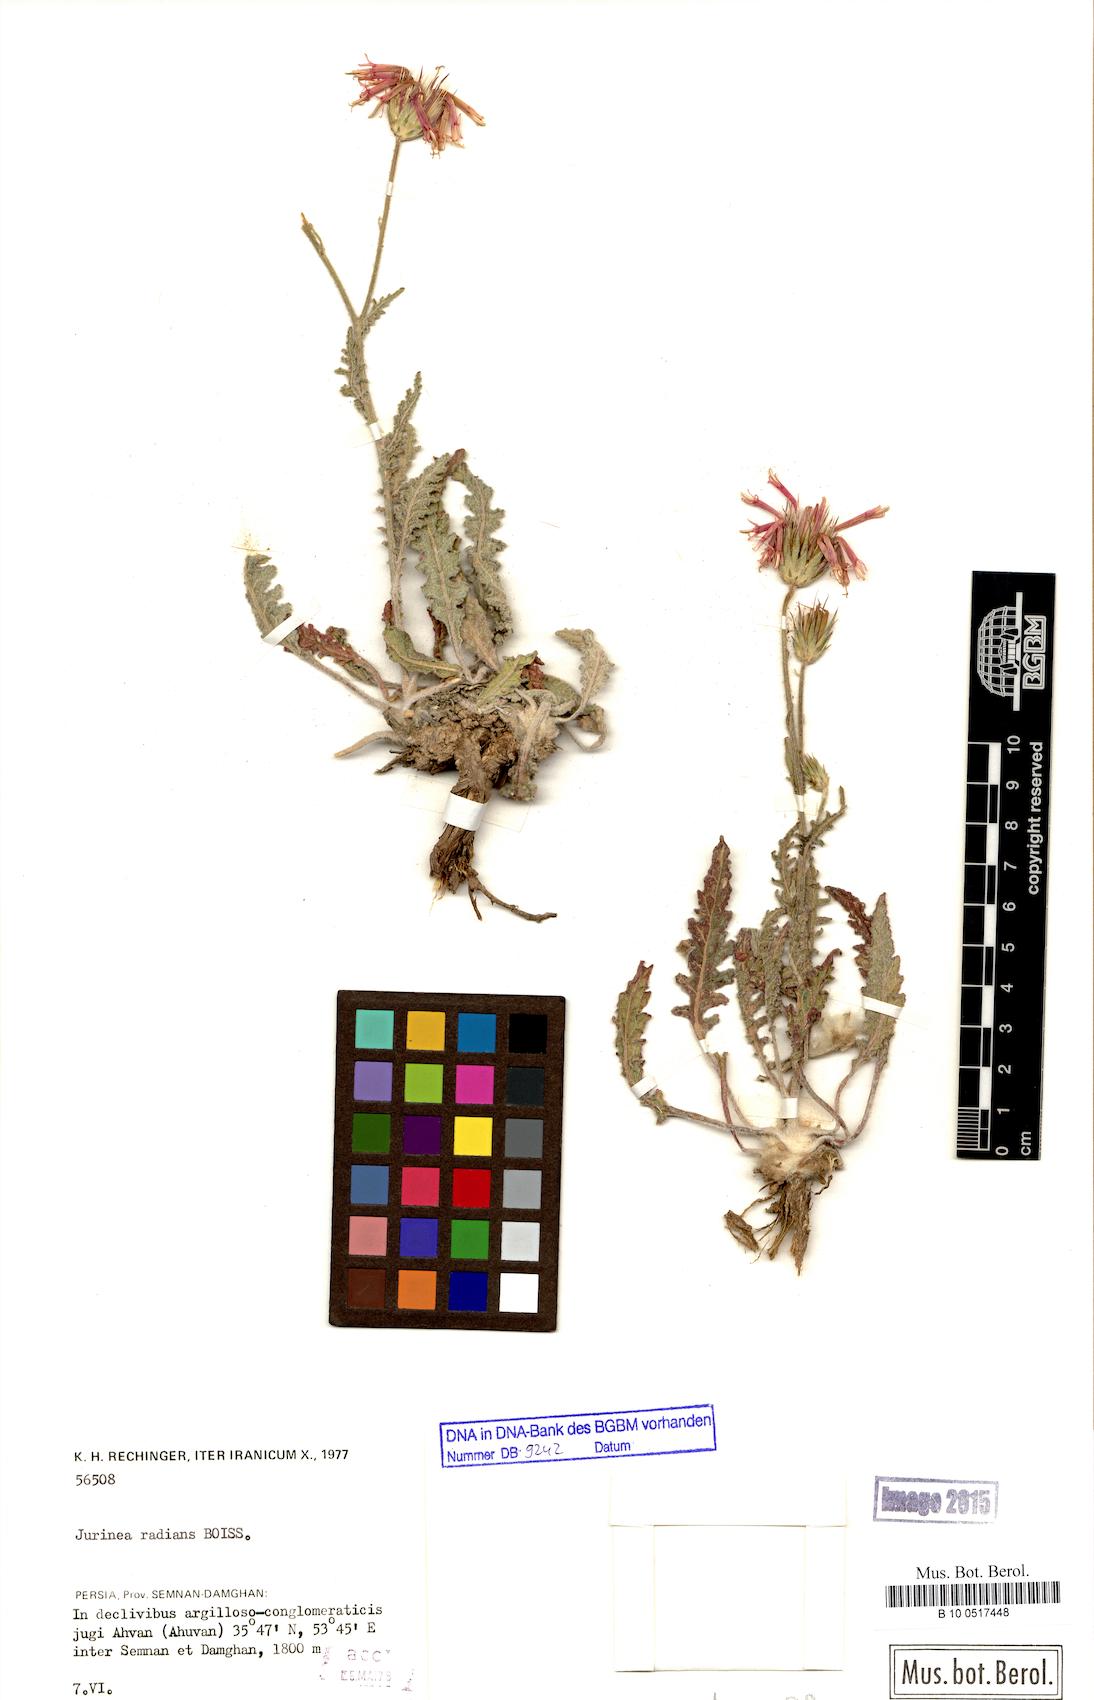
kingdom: Plantae
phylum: Tracheophyta
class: Magnoliopsida
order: Asterales
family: Asteraceae
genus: Jurinea
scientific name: Jurinea radians
